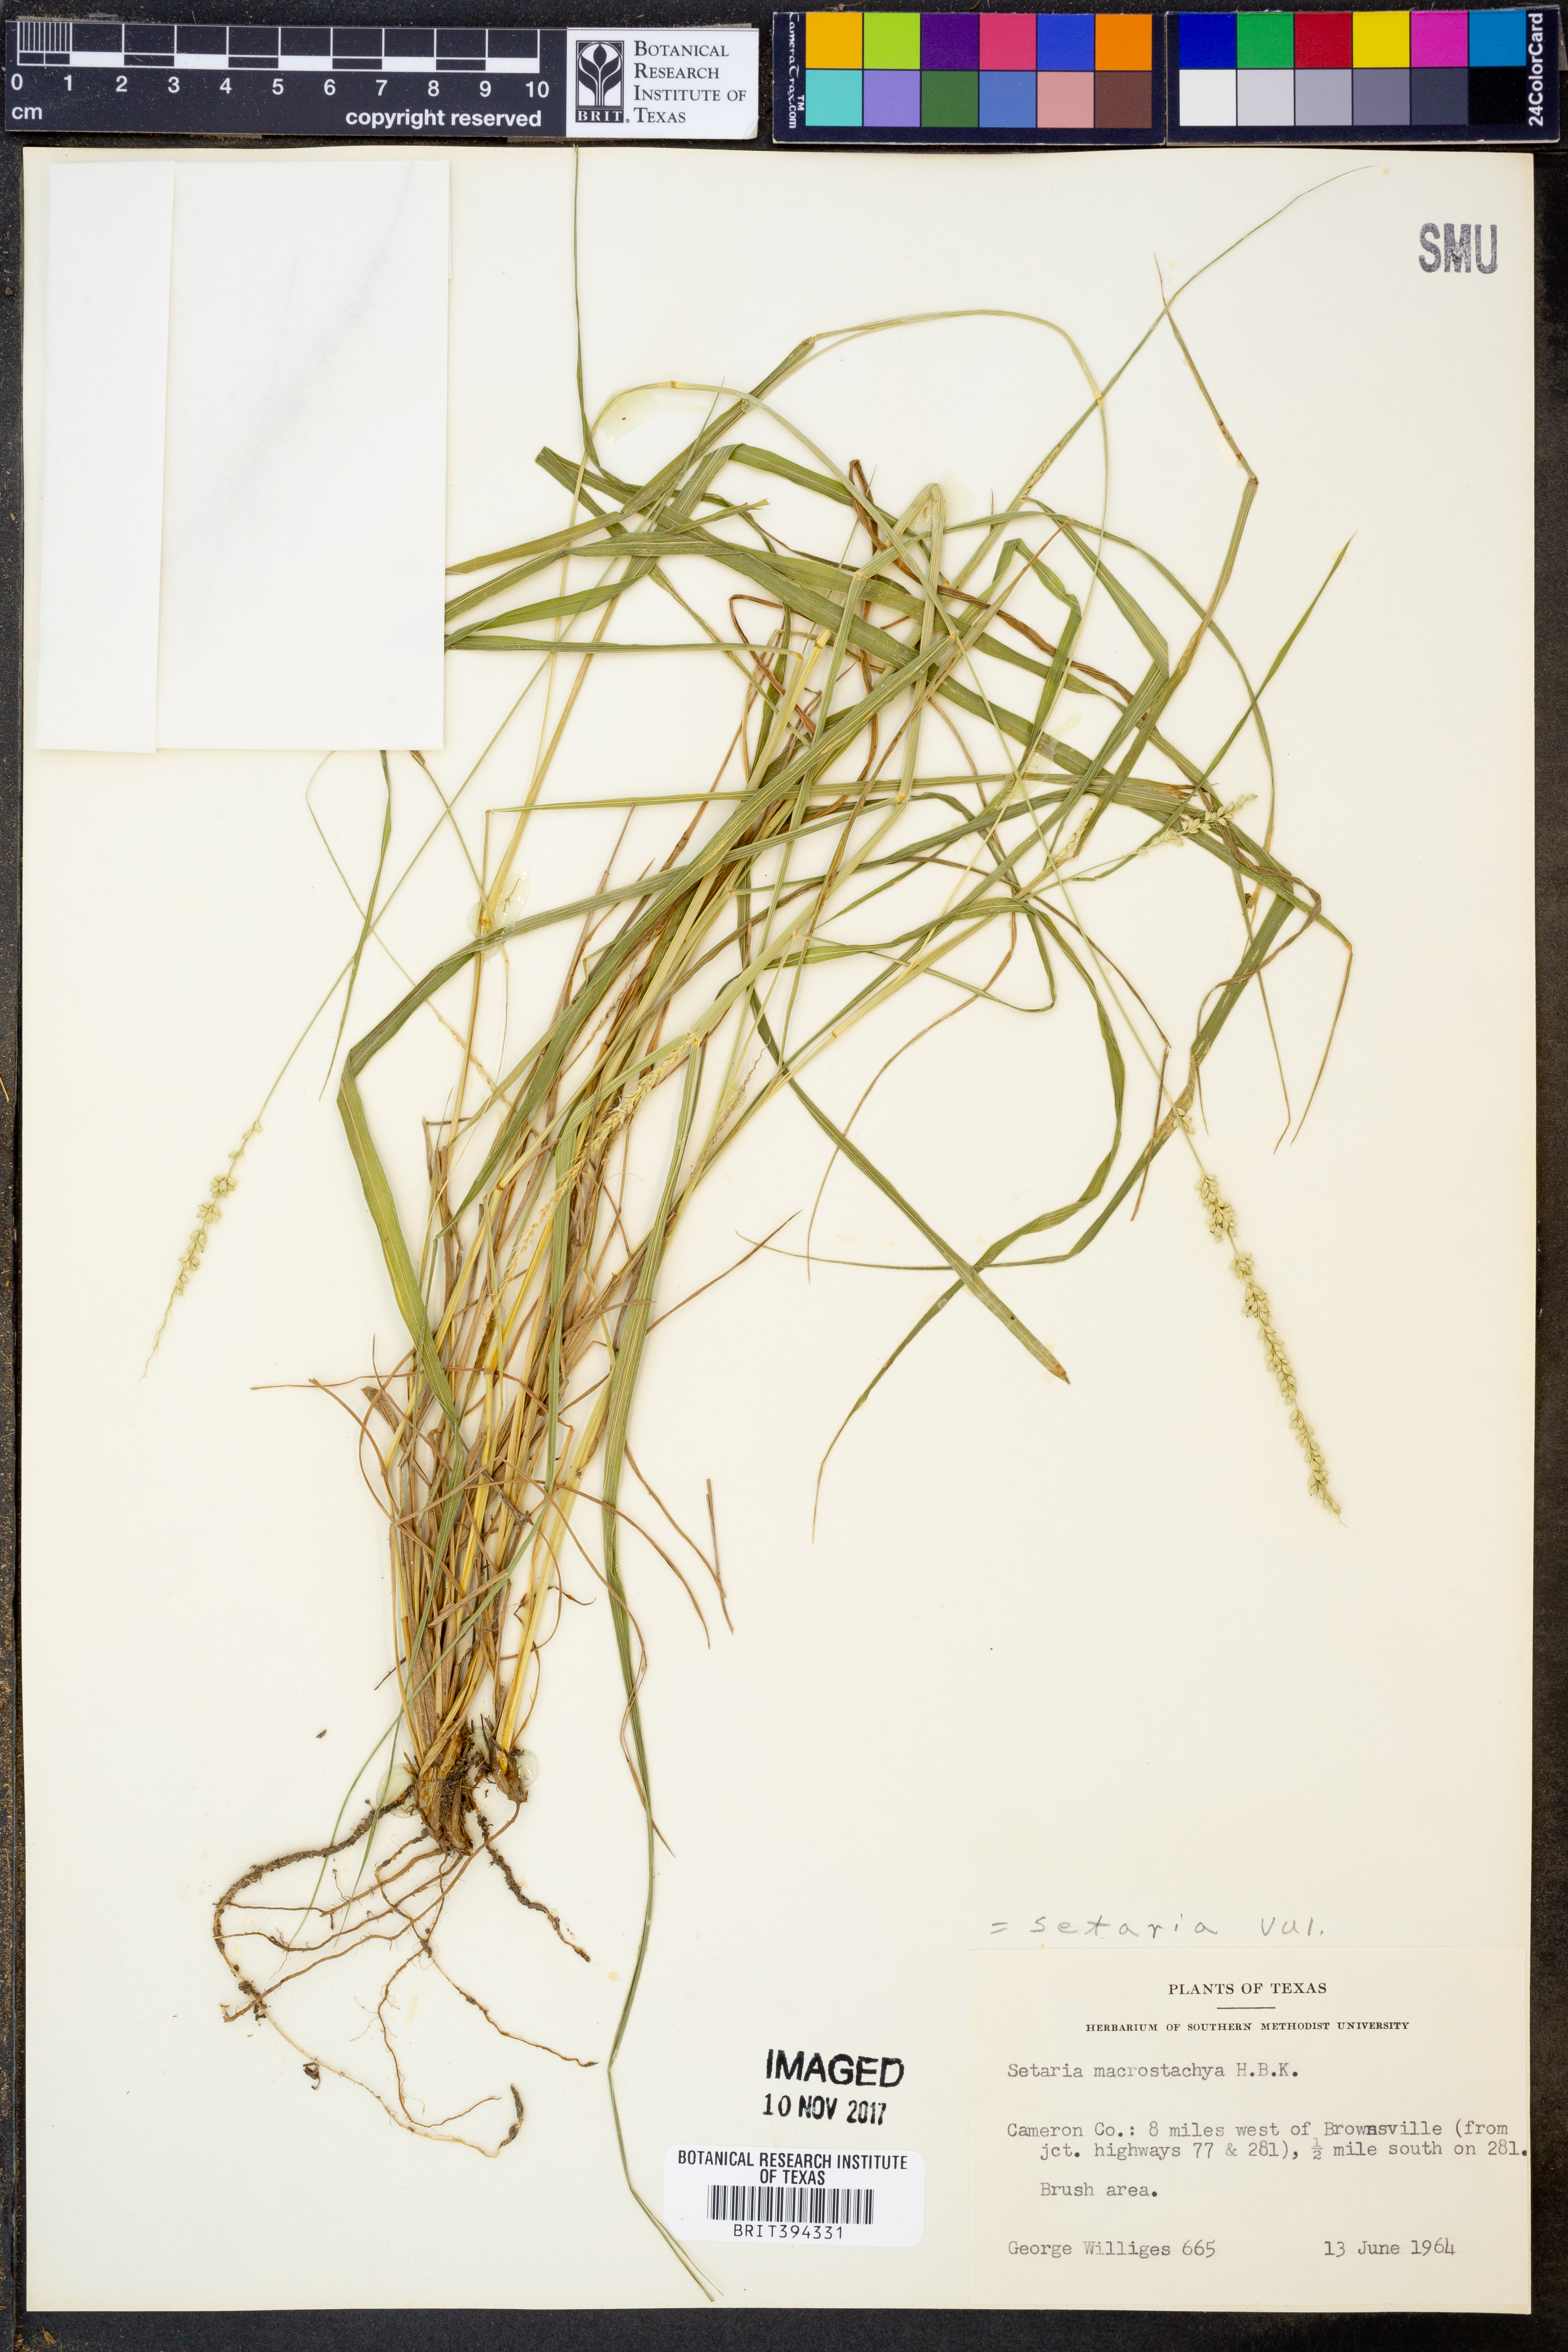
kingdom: Plantae
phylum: Tracheophyta
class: Liliopsida
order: Poales
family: Poaceae
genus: Setaria
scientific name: Setaria vulpiseta
